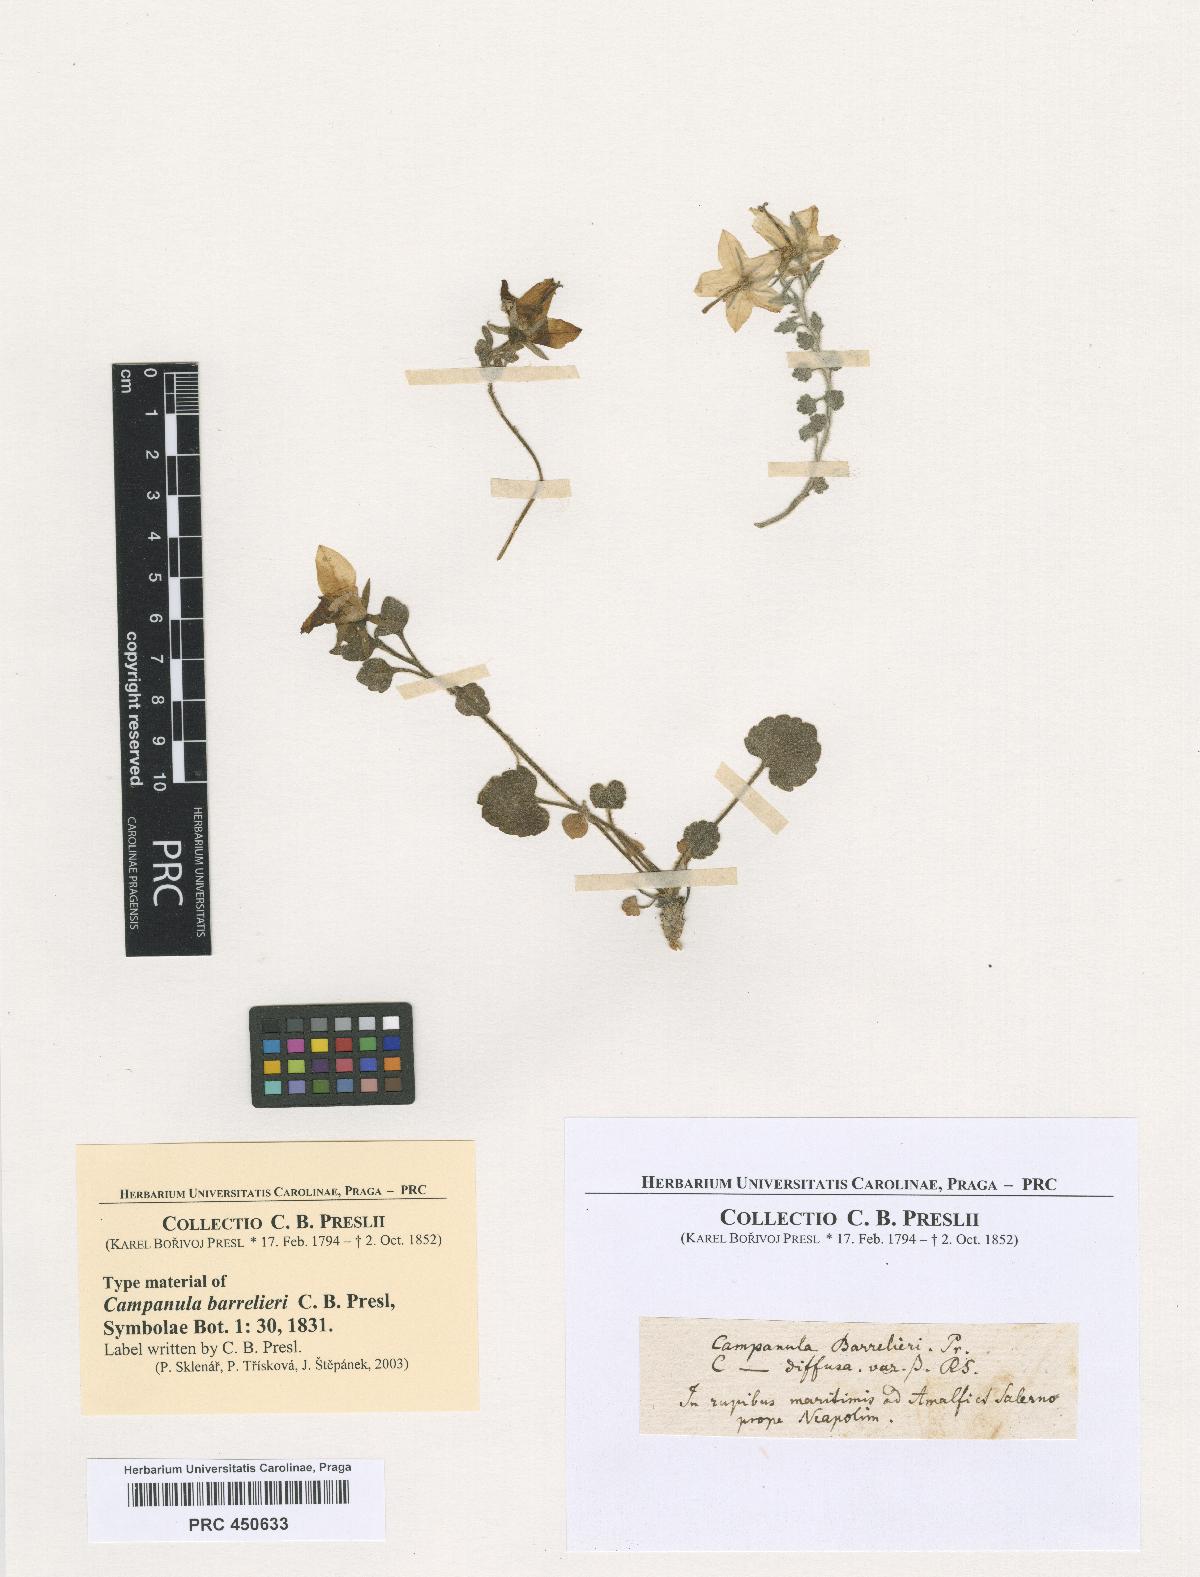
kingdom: Plantae
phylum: Tracheophyta
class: Magnoliopsida
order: Asterales
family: Campanulaceae
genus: Campanula
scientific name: Campanula fragilis
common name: Italian bellflower
